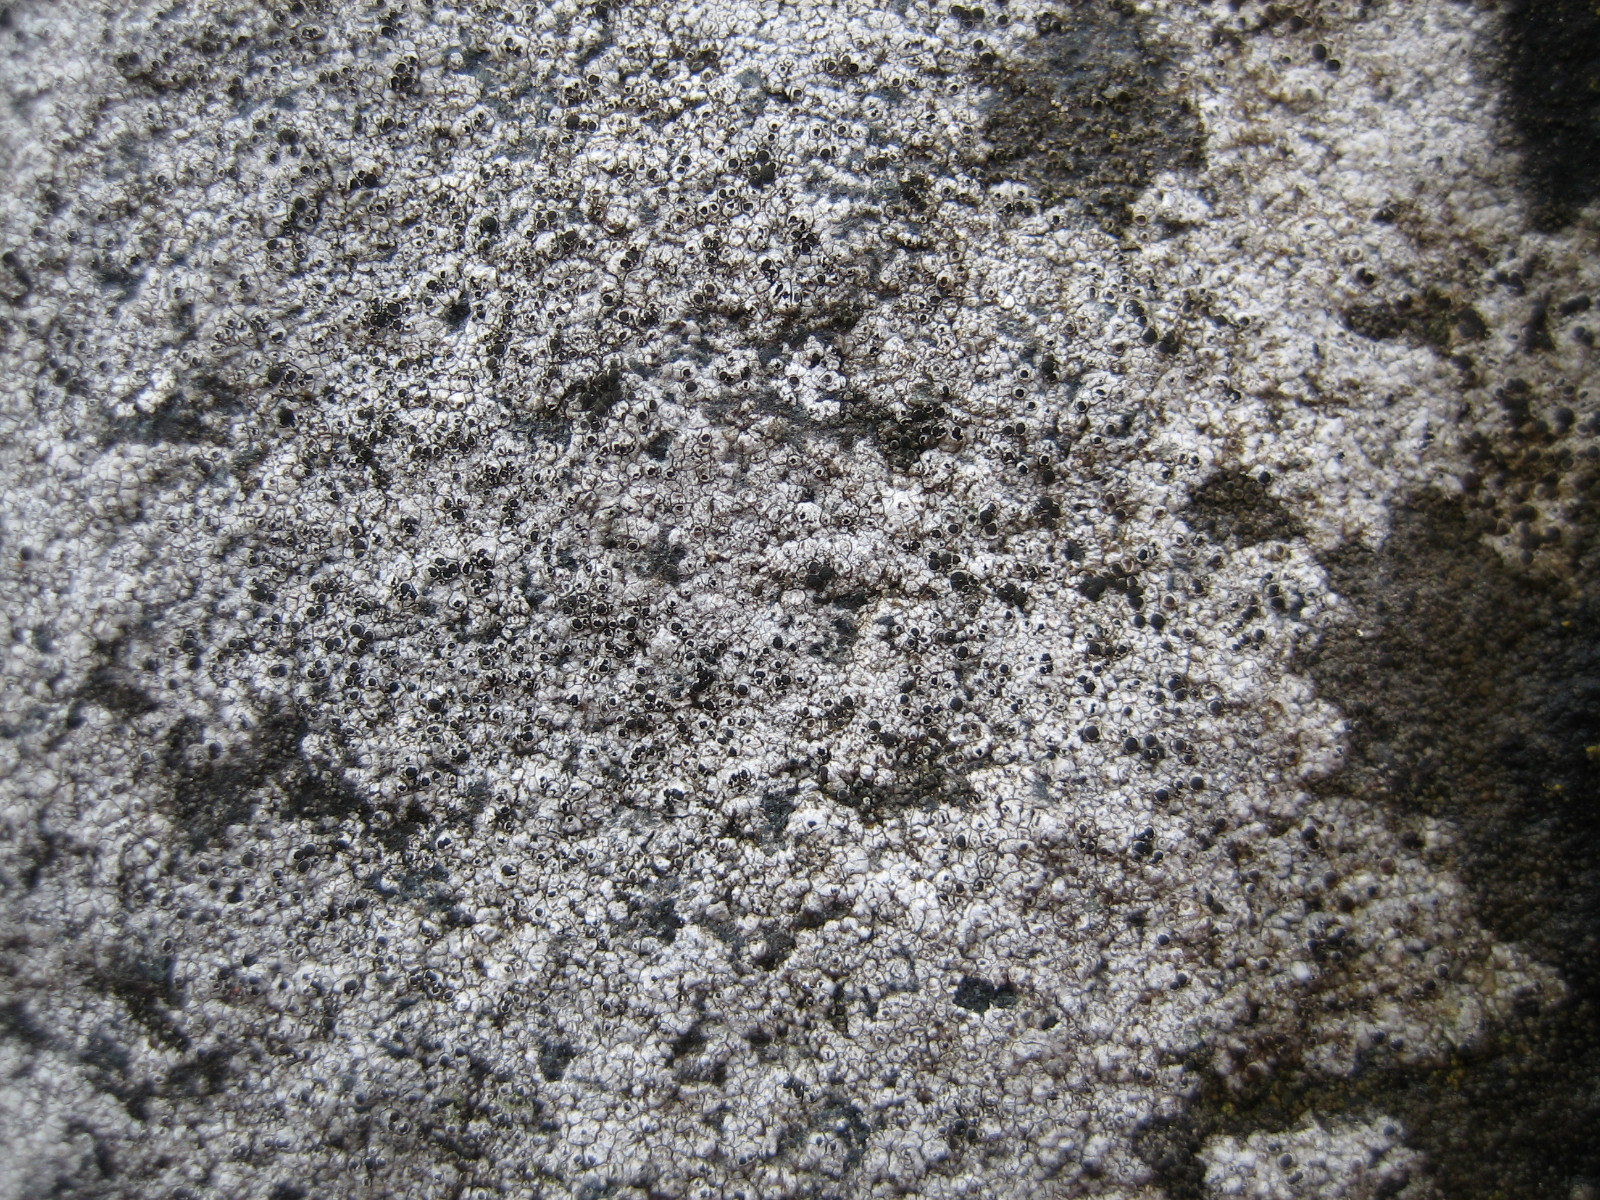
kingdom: Fungi
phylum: Ascomycota
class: Lecanoromycetes
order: Lecanorales
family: Tephromelataceae
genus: Tephromela
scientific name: Tephromela atra
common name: sortfrugtet kantskivelav
